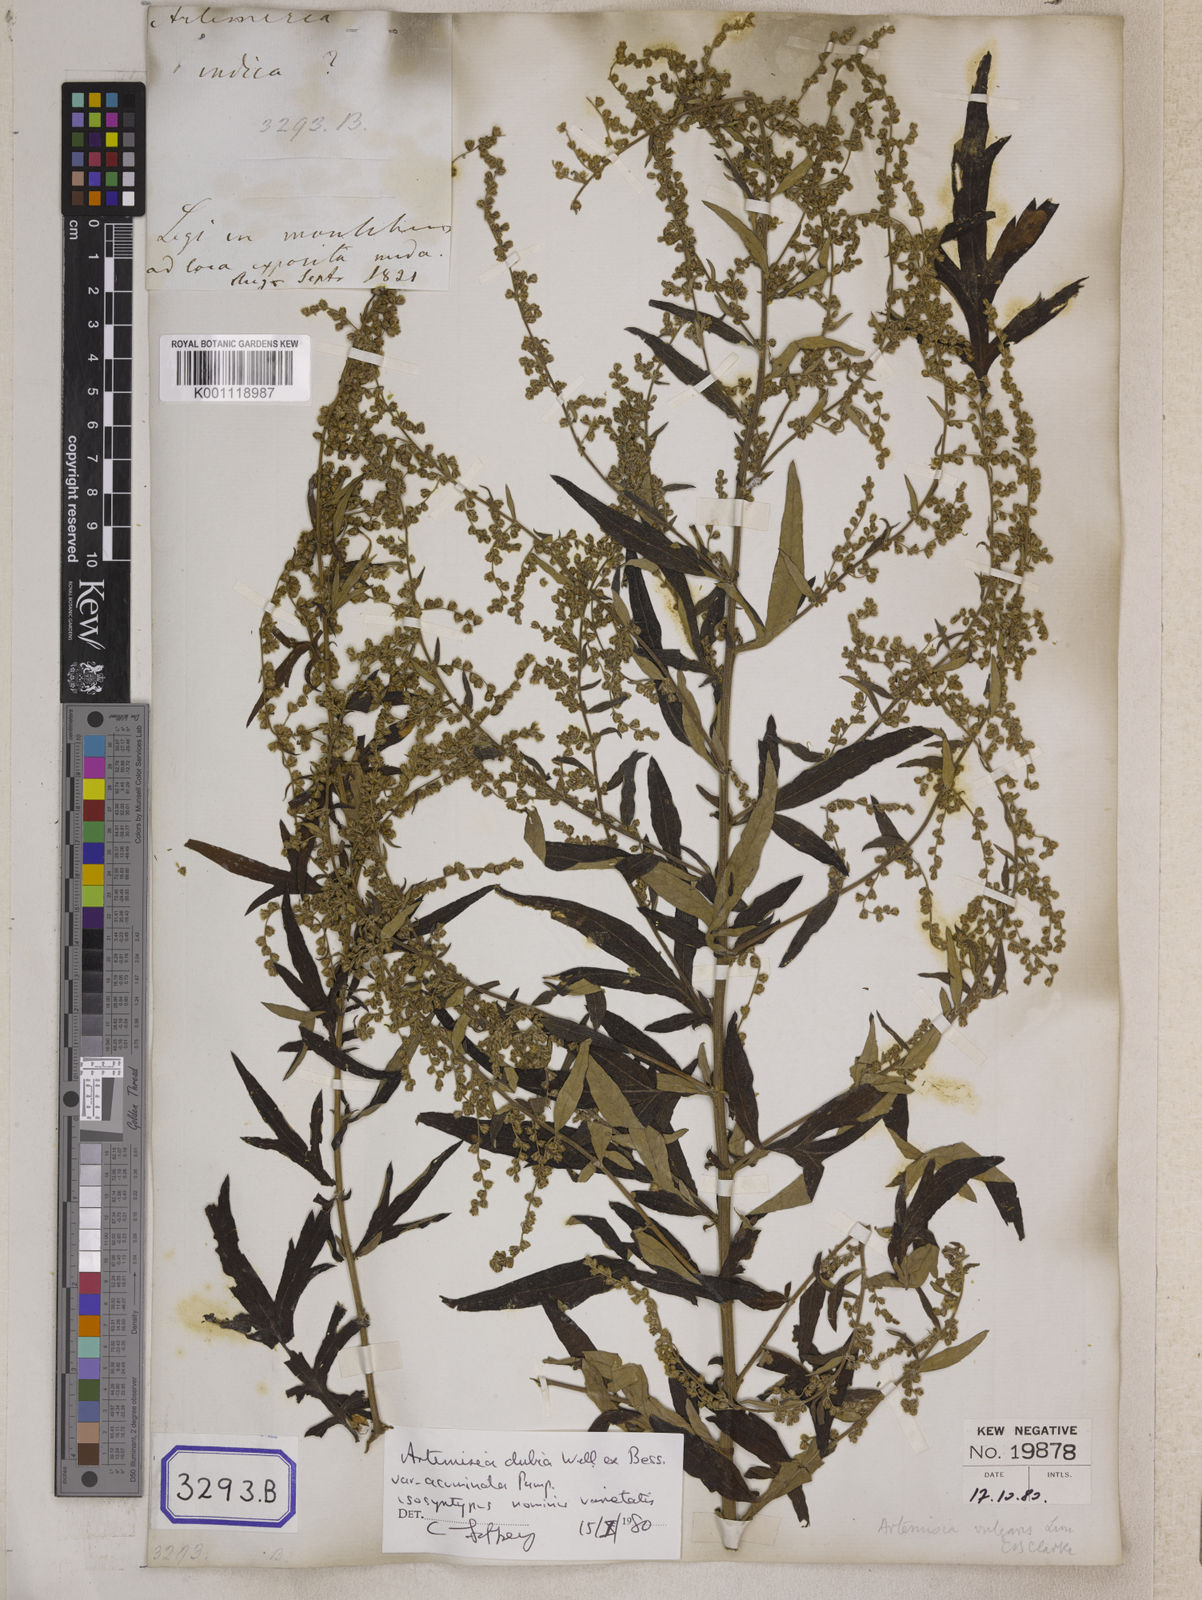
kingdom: Plantae
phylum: Tracheophyta
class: Magnoliopsida
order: Asterales
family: Asteraceae
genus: Artemisia
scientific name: Artemisia indica
